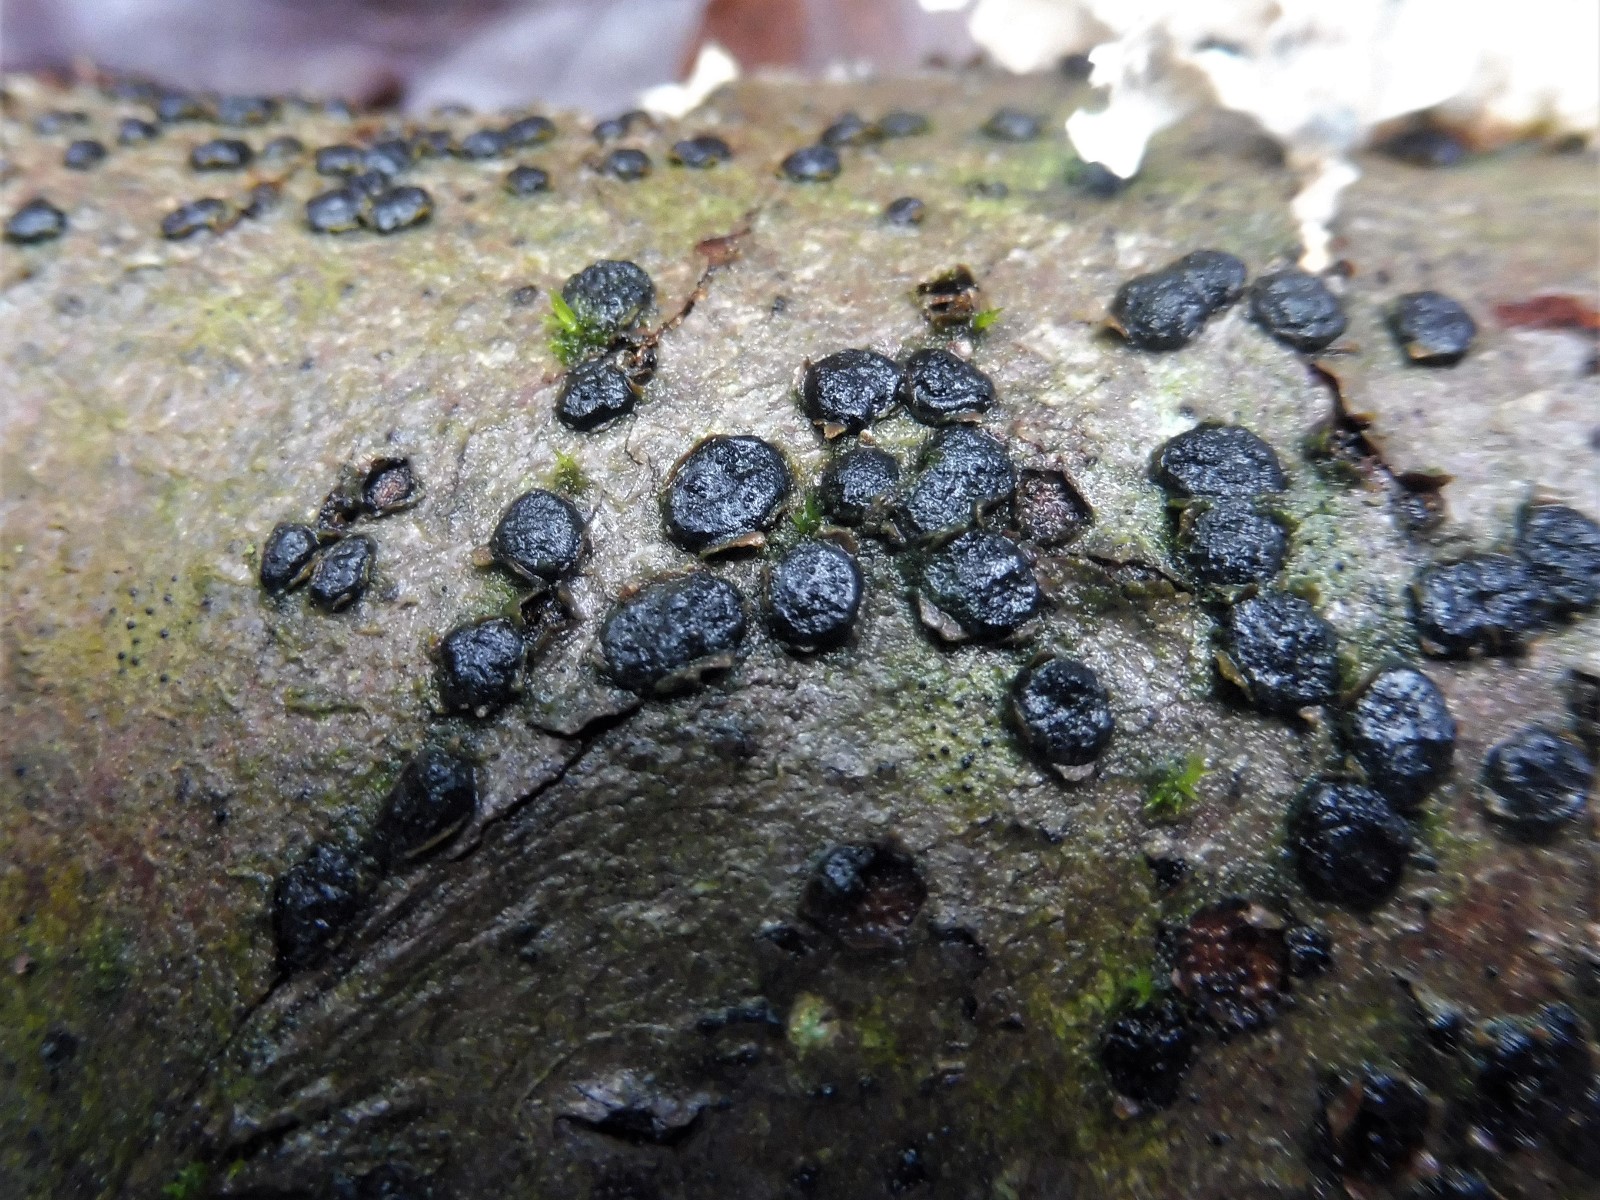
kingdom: Fungi
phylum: Ascomycota
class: Sordariomycetes
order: Xylariales
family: Diatrypaceae
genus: Diatrype
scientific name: Diatrype disciformis
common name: kant-kulskorpe
